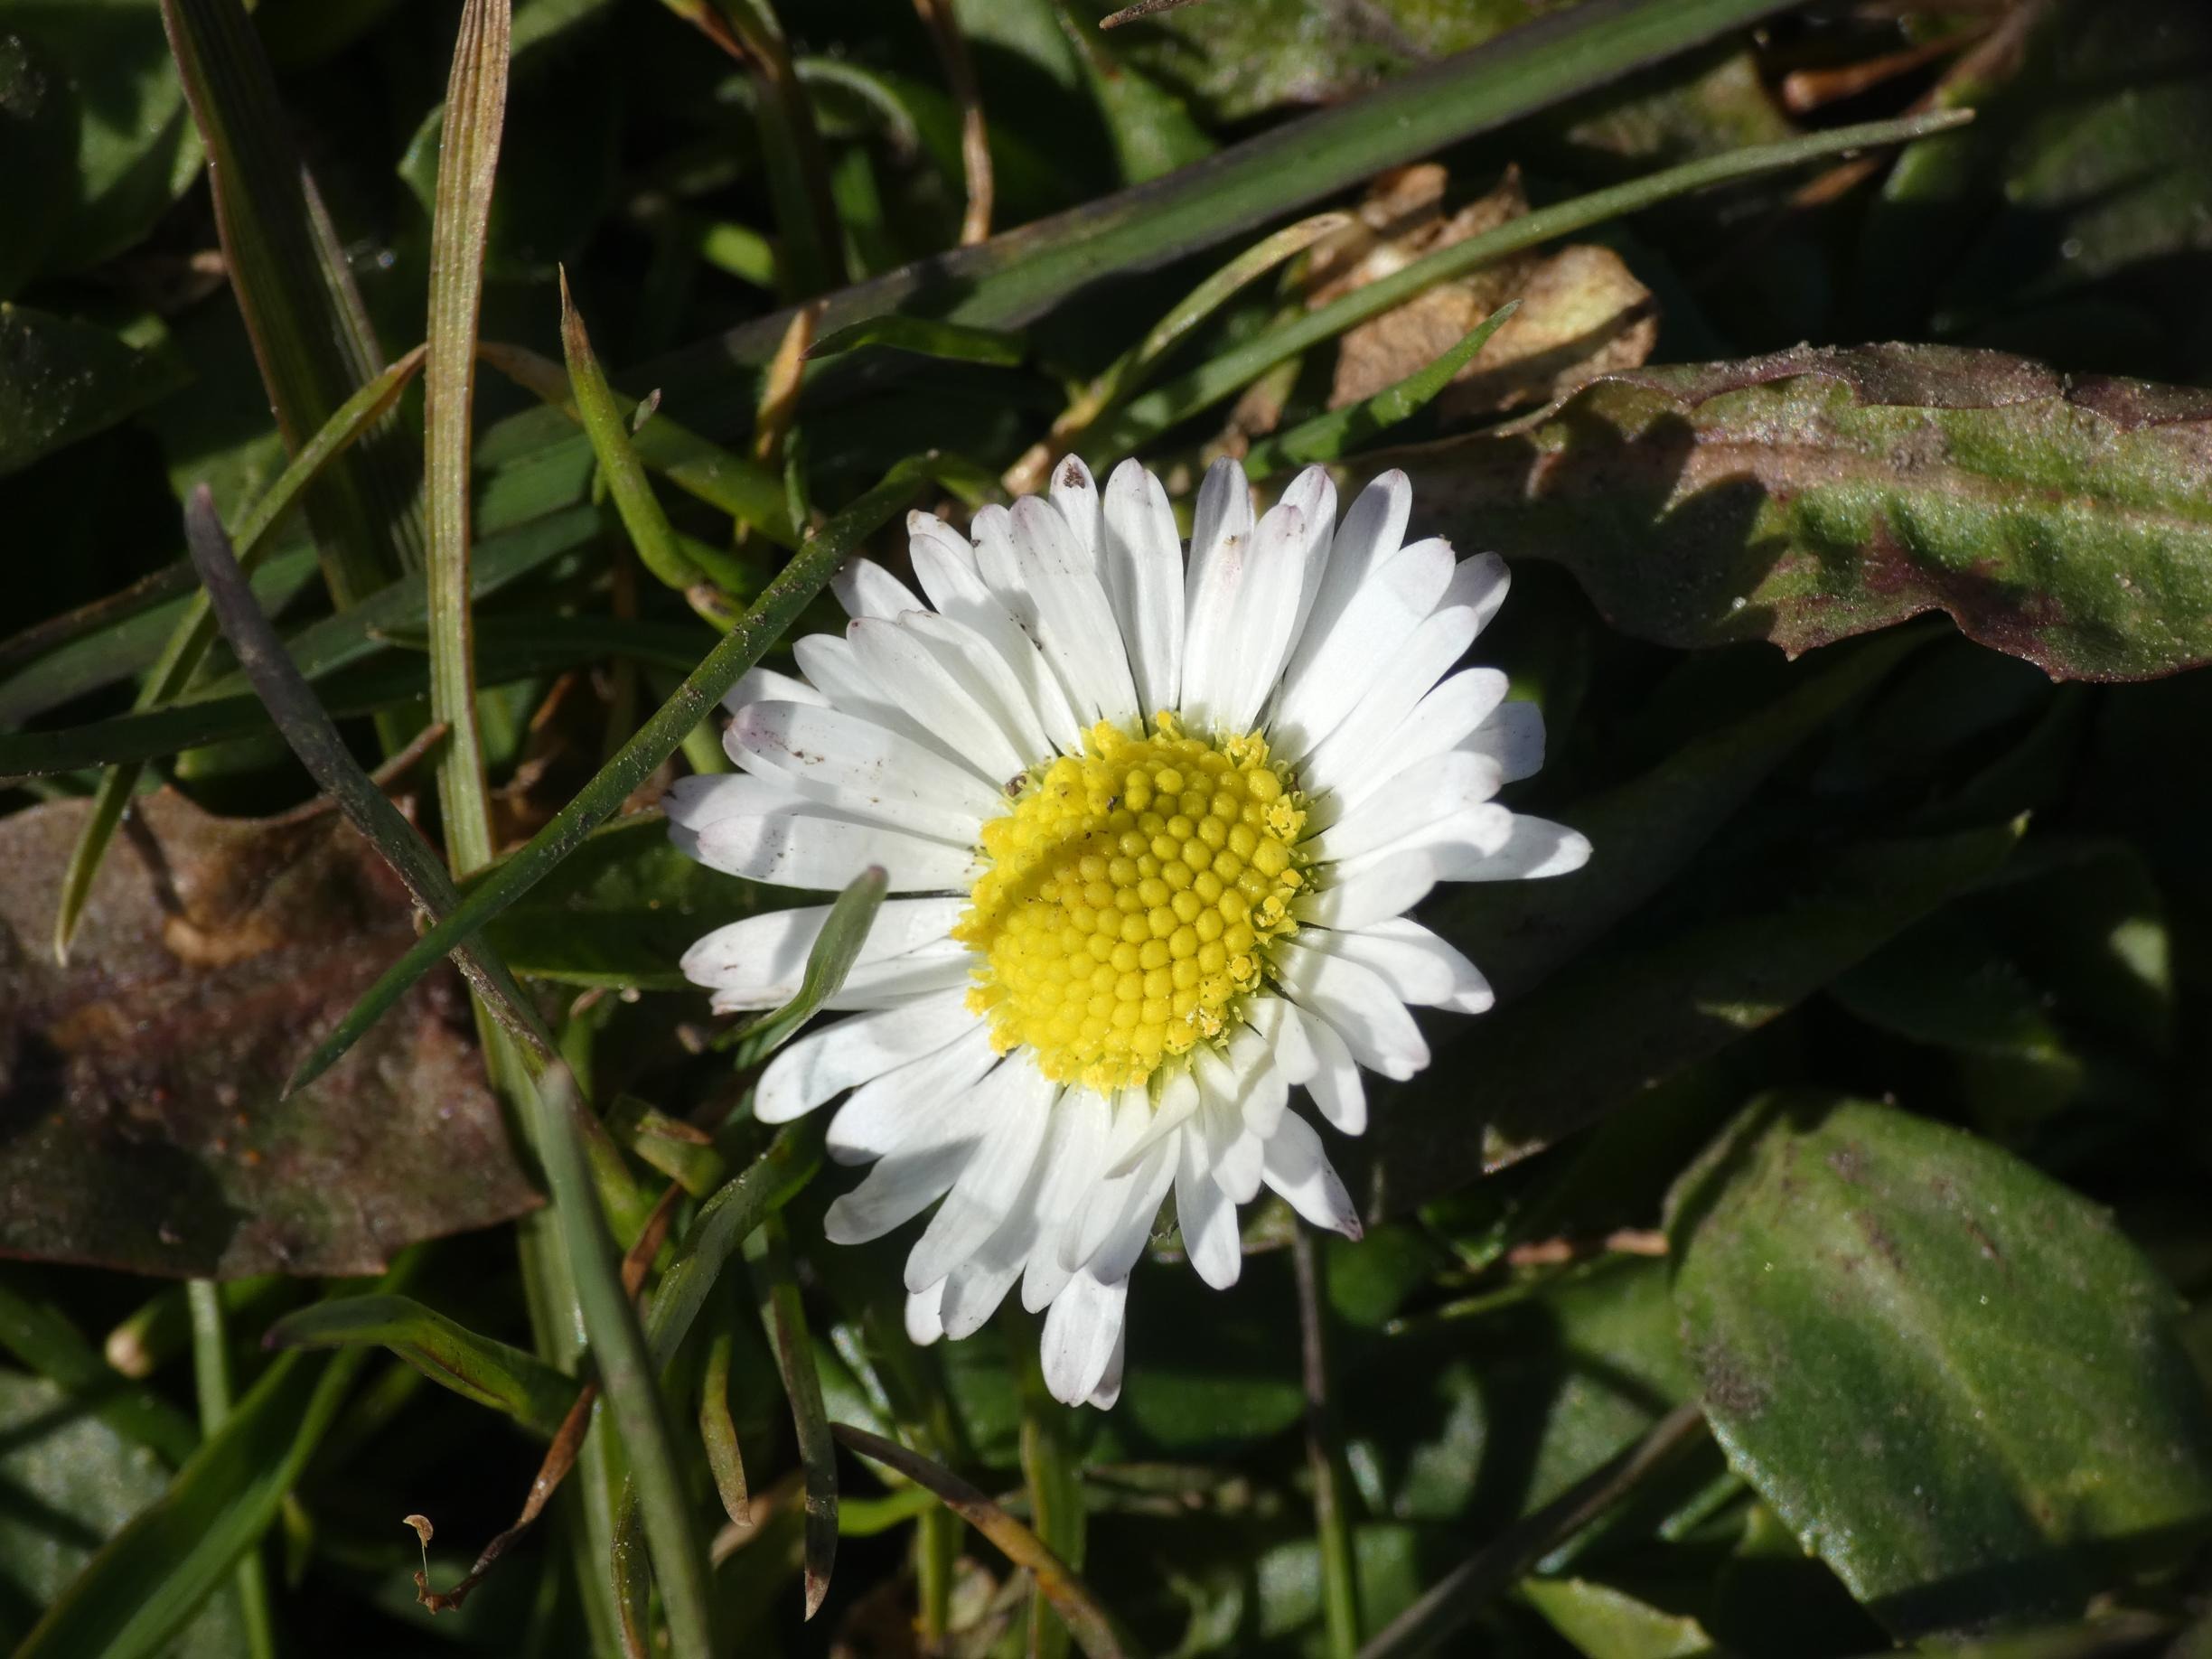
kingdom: Plantae
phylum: Tracheophyta
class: Magnoliopsida
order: Asterales
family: Asteraceae
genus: Bellis
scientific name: Bellis perennis
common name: Tusindfryd
